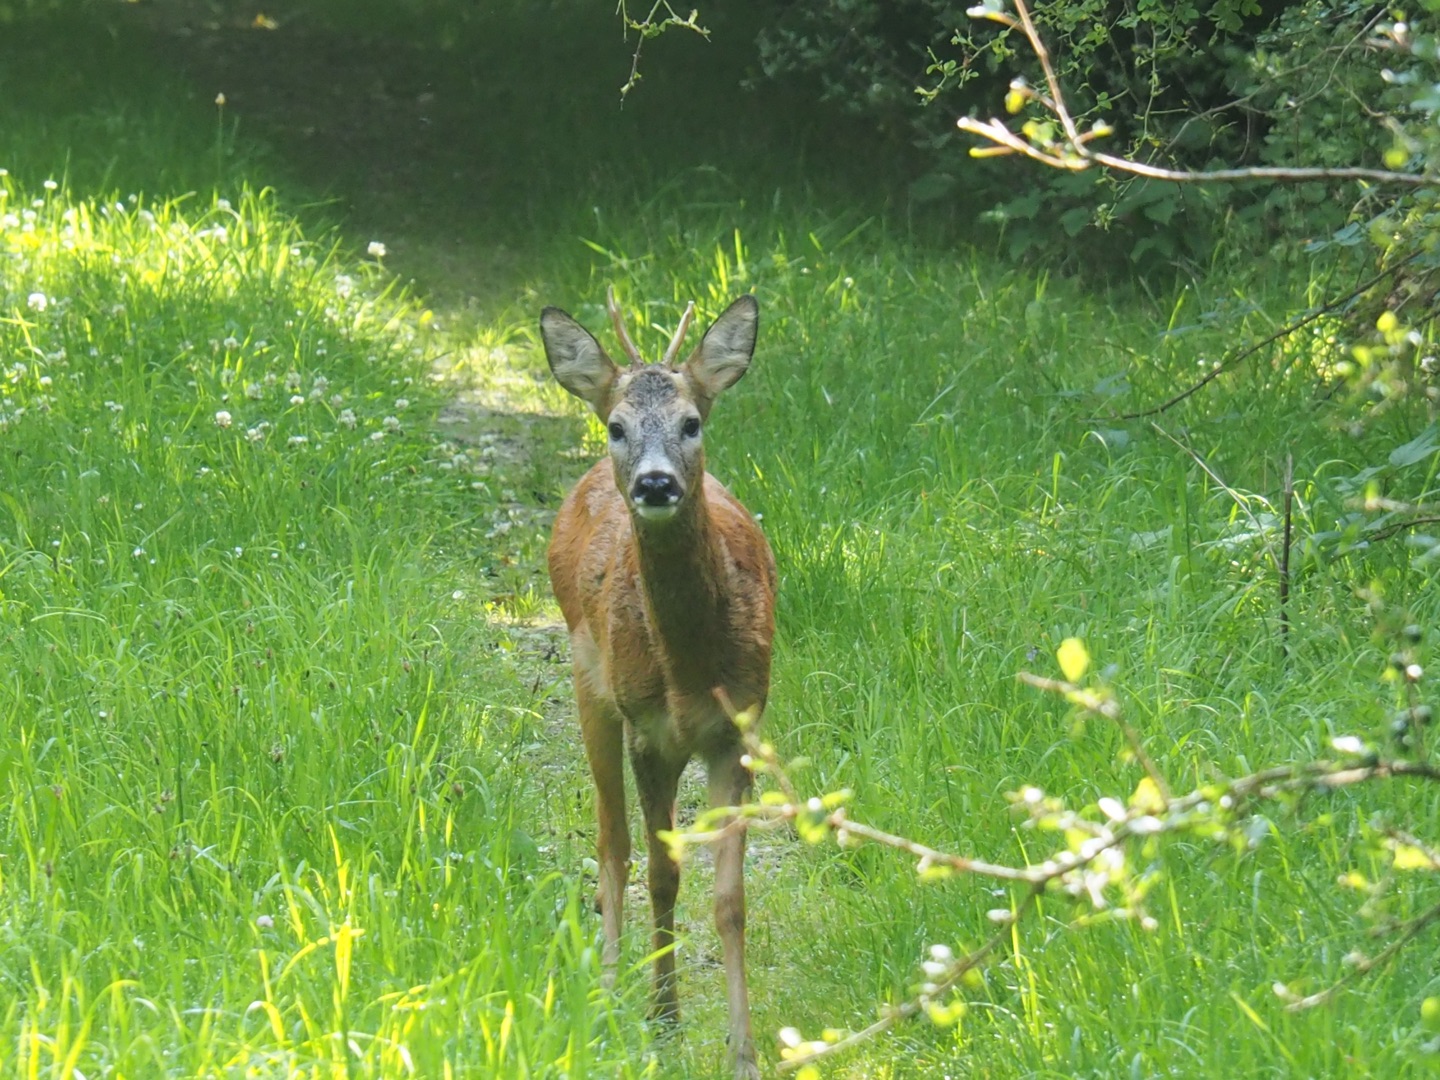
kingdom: Animalia
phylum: Chordata
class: Mammalia
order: Artiodactyla
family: Cervidae
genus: Capreolus
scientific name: Capreolus capreolus
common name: Rådyr
